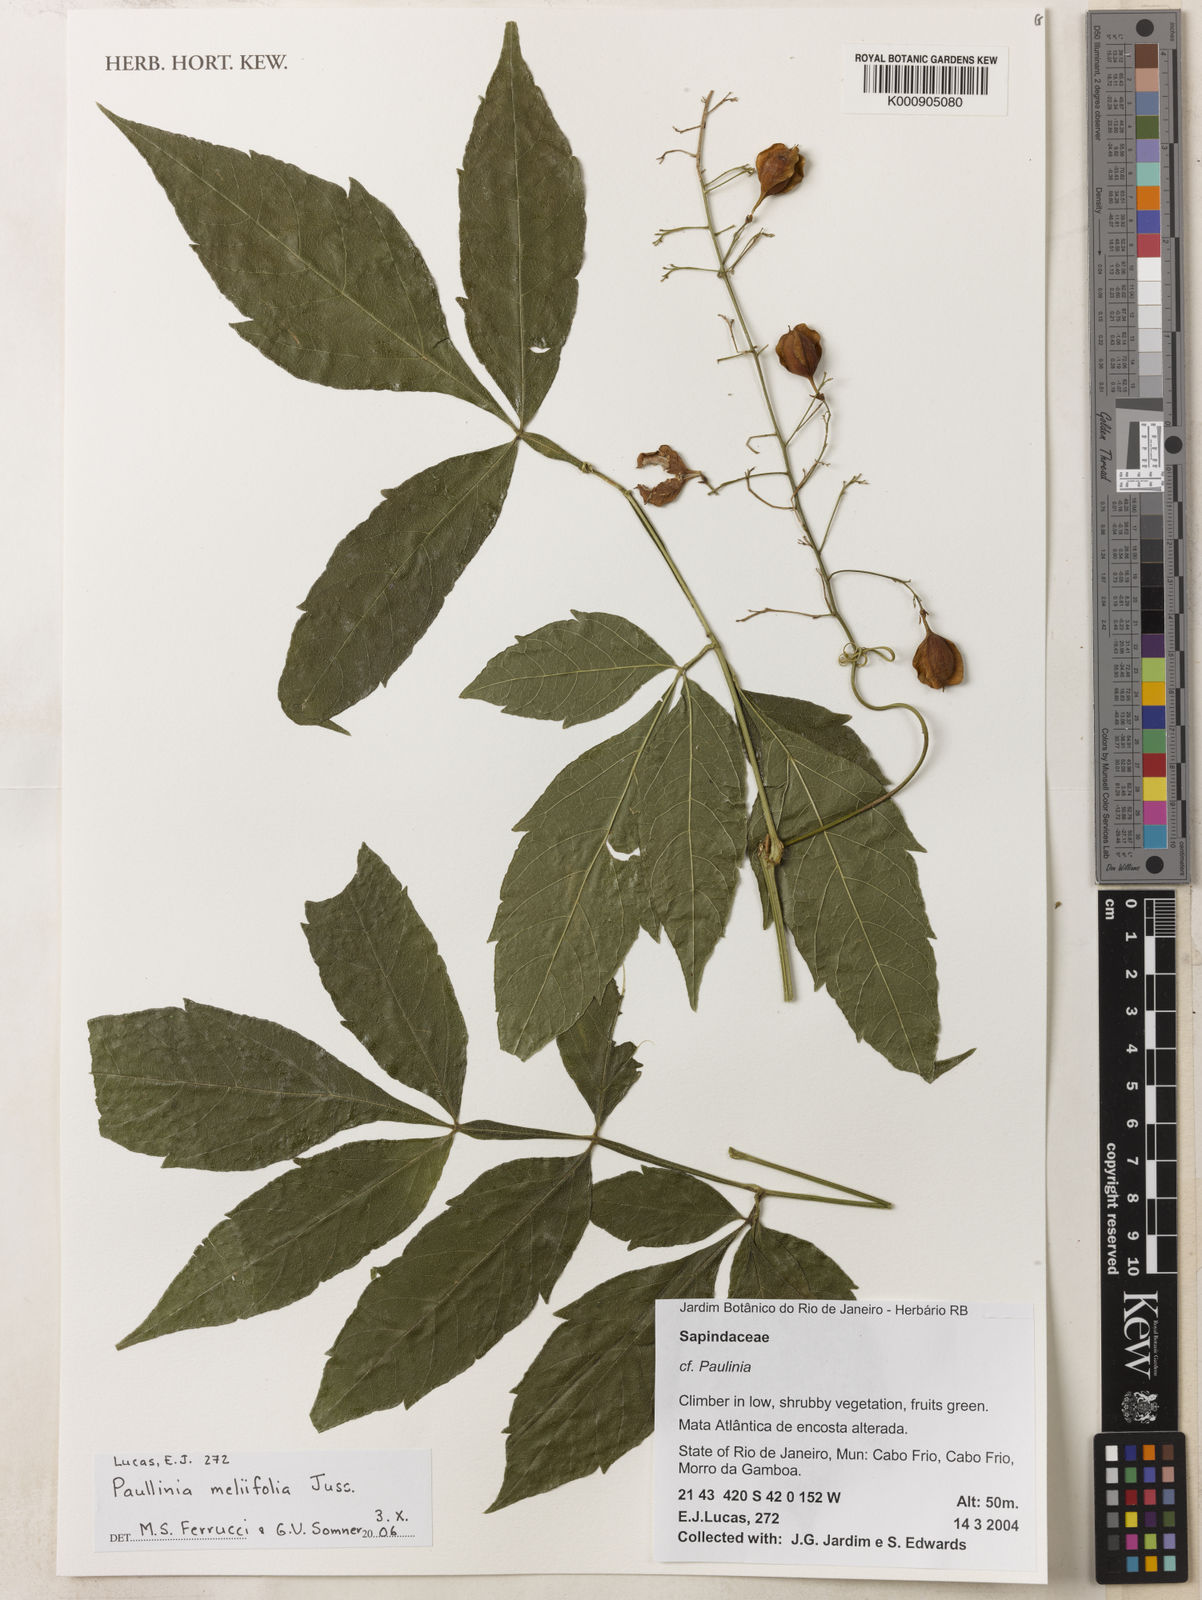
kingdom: Plantae
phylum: Tracheophyta
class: Magnoliopsida
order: Sapindales
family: Sapindaceae
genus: Paullinia
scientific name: Paullinia meliifolia
